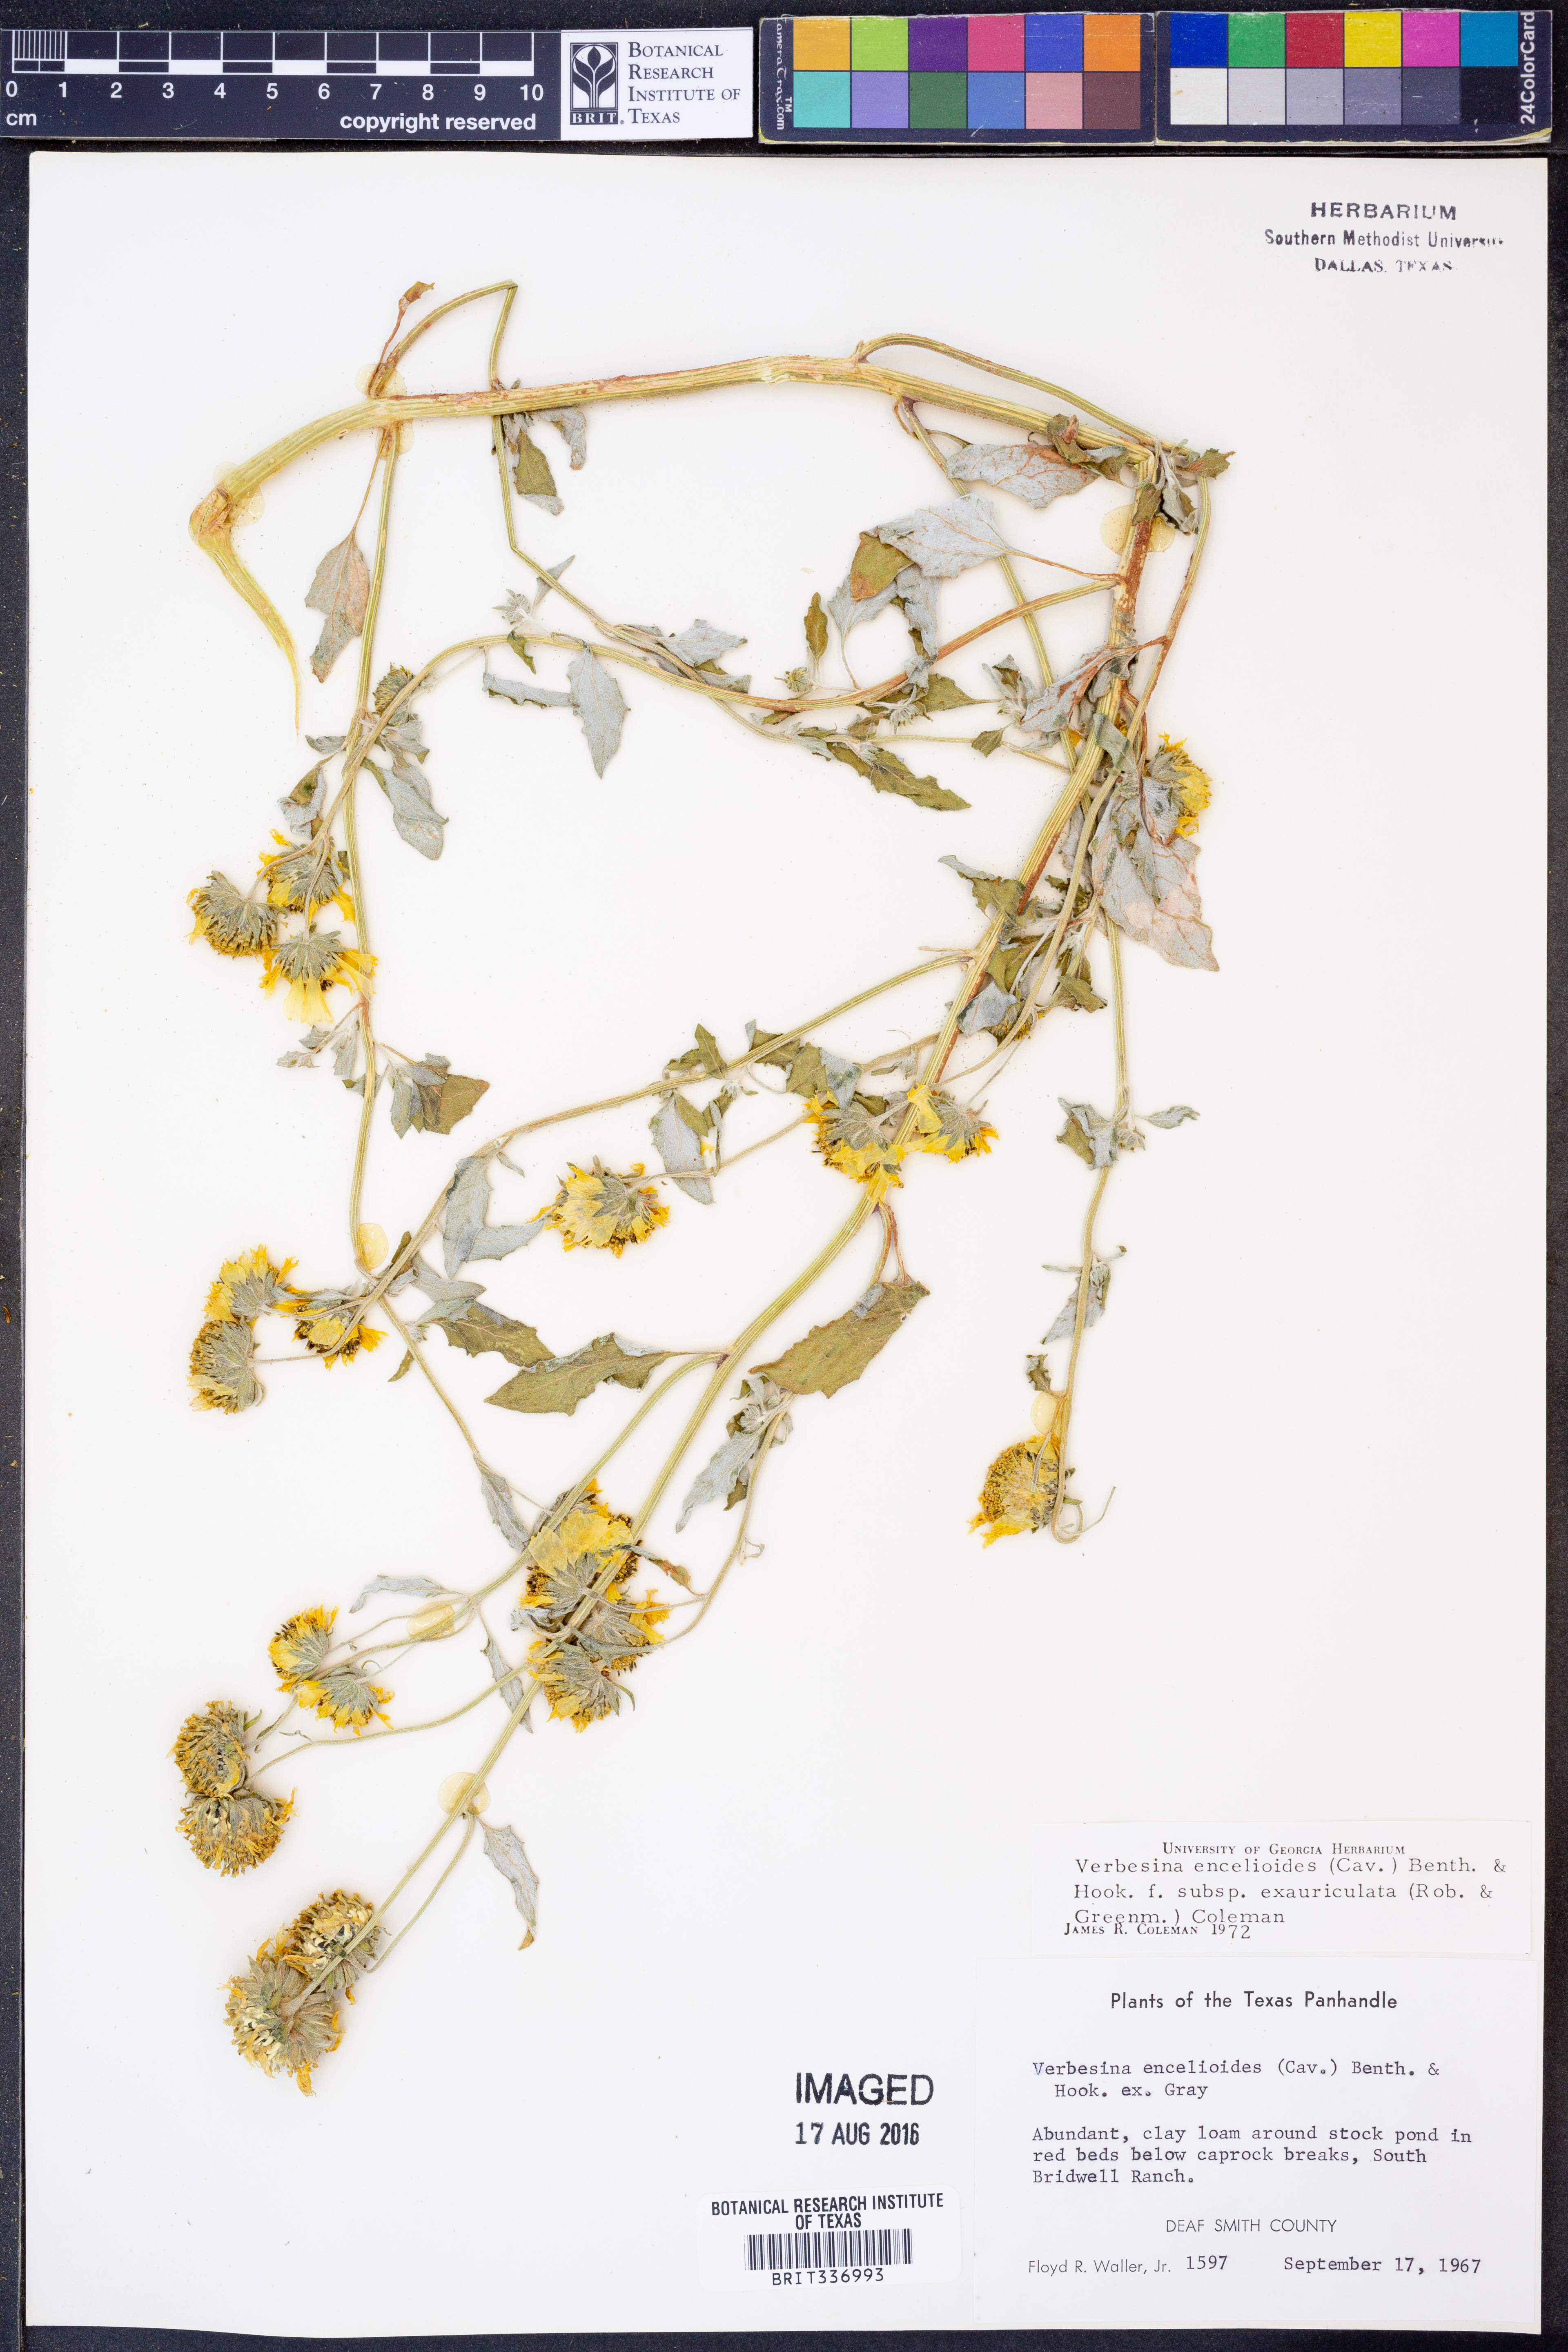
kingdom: Plantae
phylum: Tracheophyta
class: Magnoliopsida
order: Asterales
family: Asteraceae
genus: Verbesina
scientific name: Verbesina encelioides
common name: Golden crownbeard
